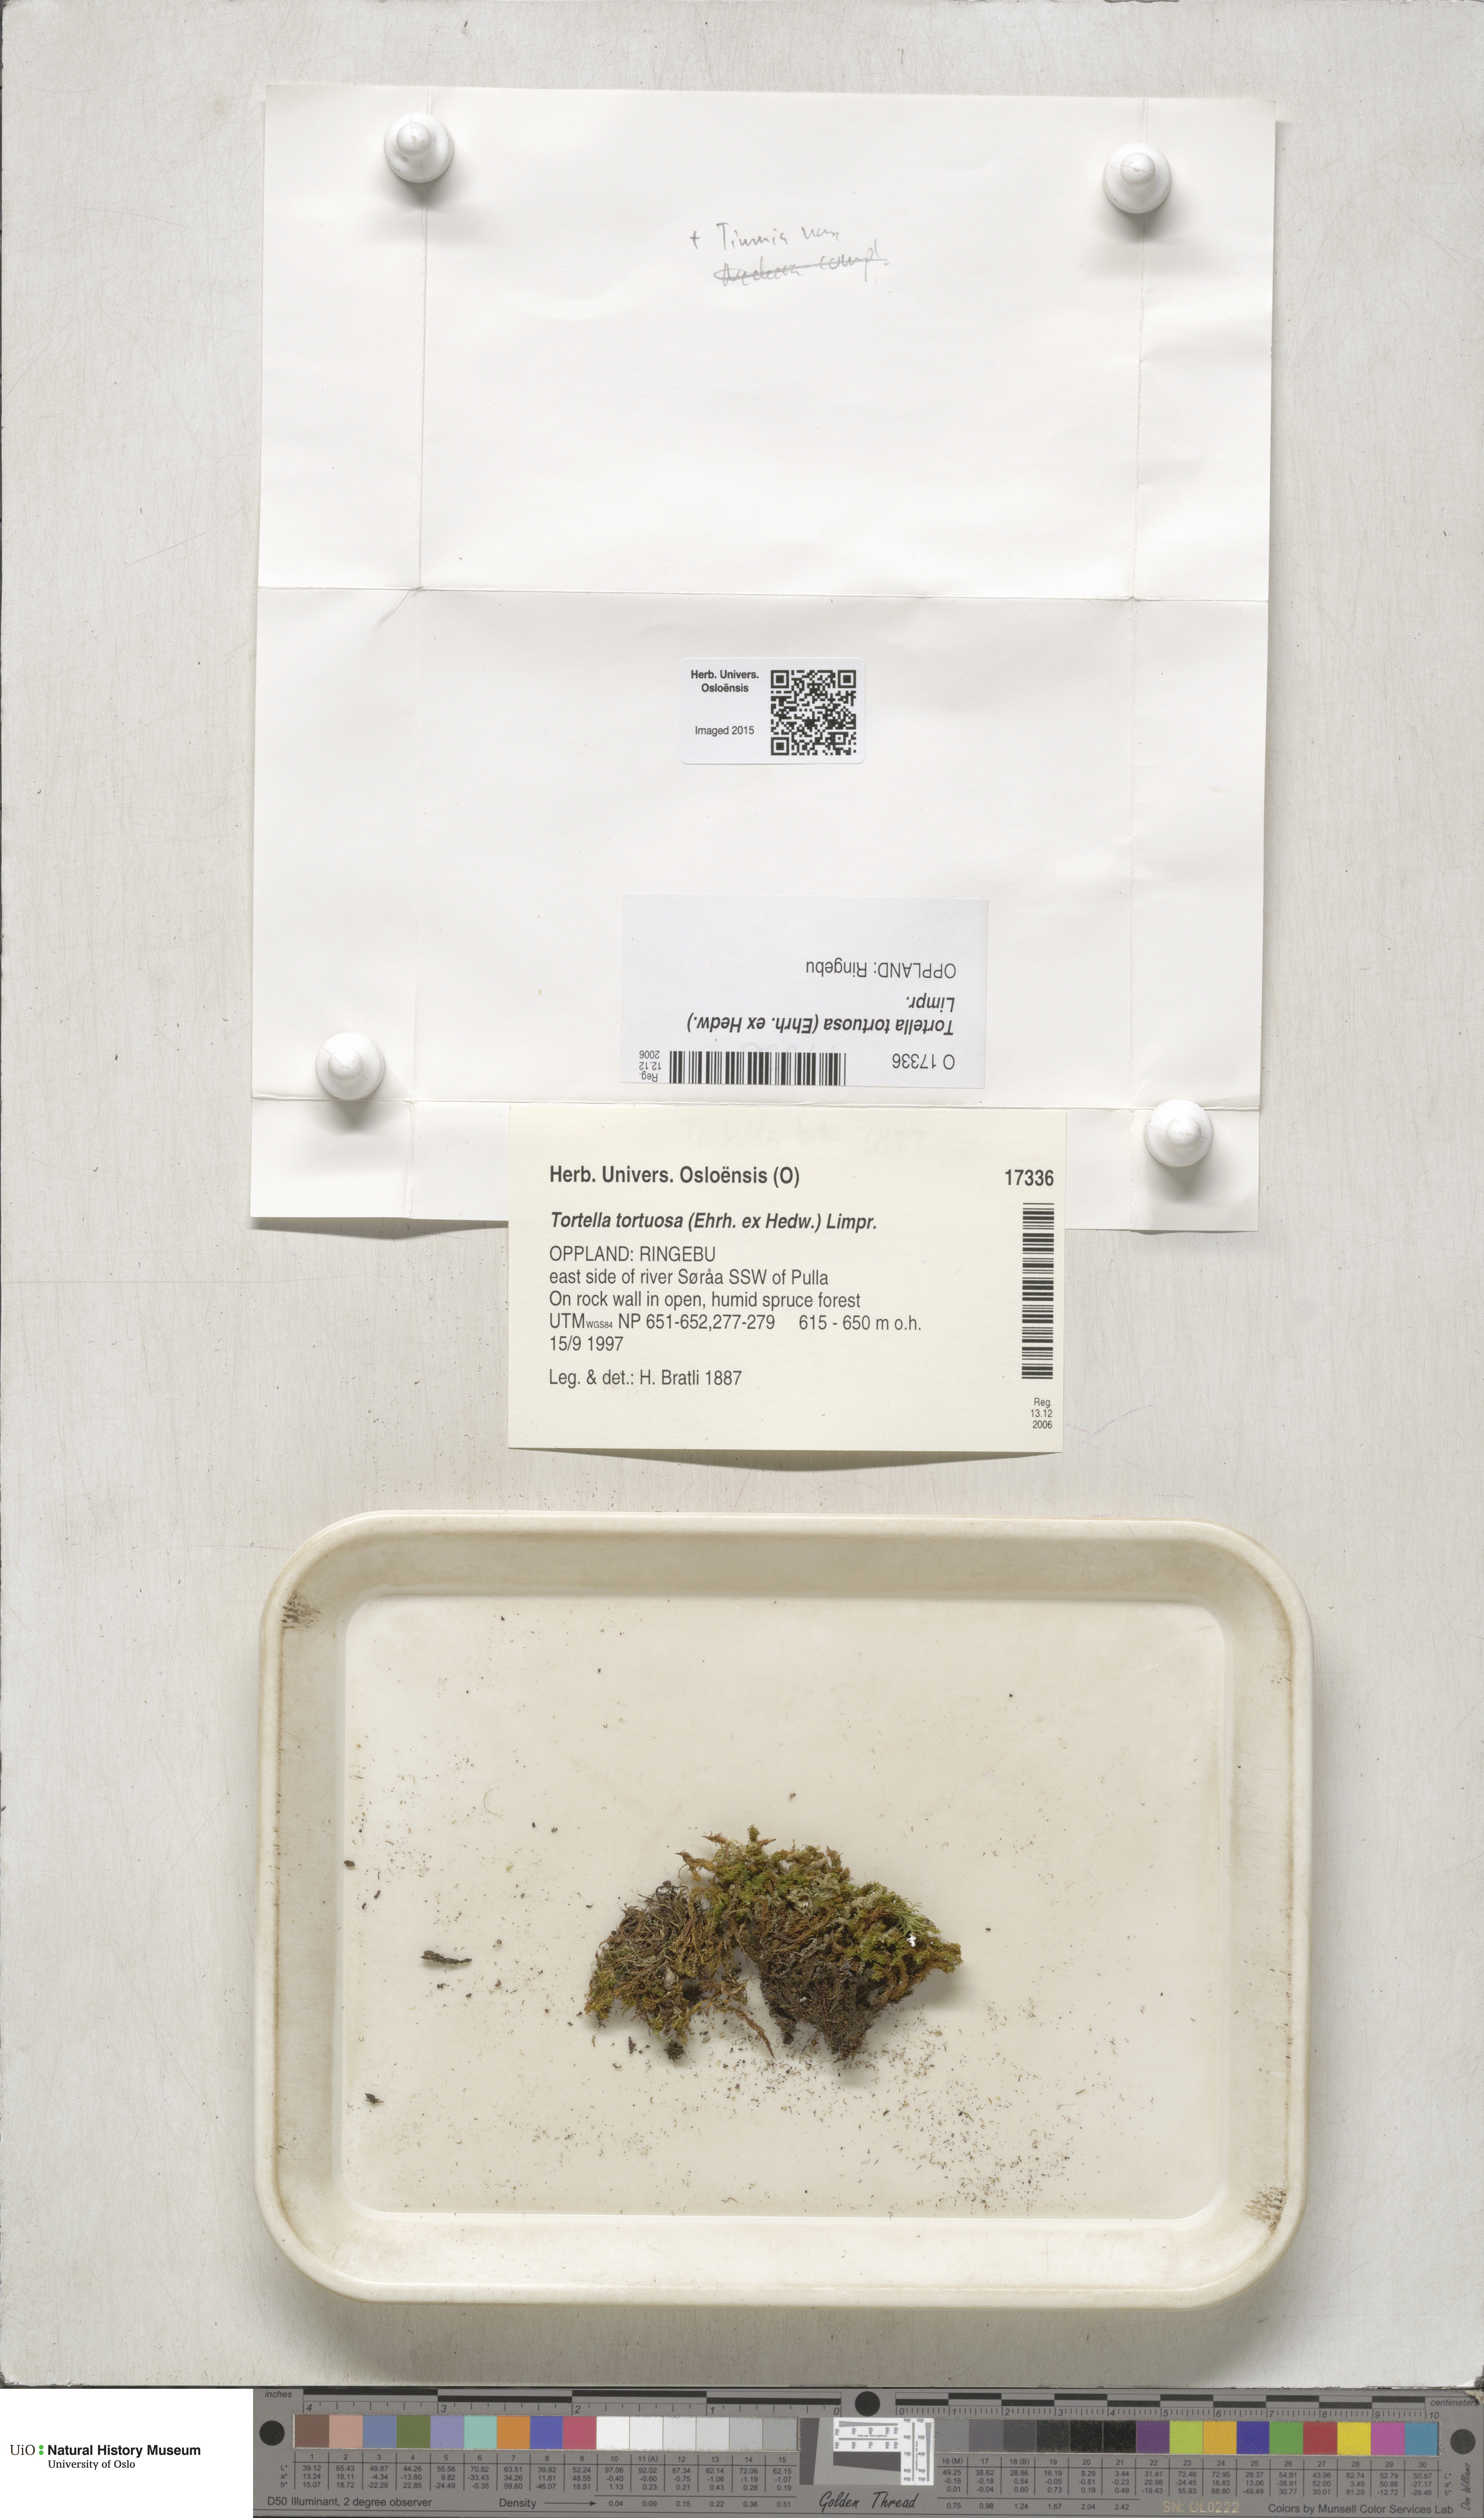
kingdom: Plantae
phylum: Bryophyta
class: Bryopsida
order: Pottiales
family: Pottiaceae
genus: Tortella
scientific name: Tortella tortuosa
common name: Frizzled crisp moss
